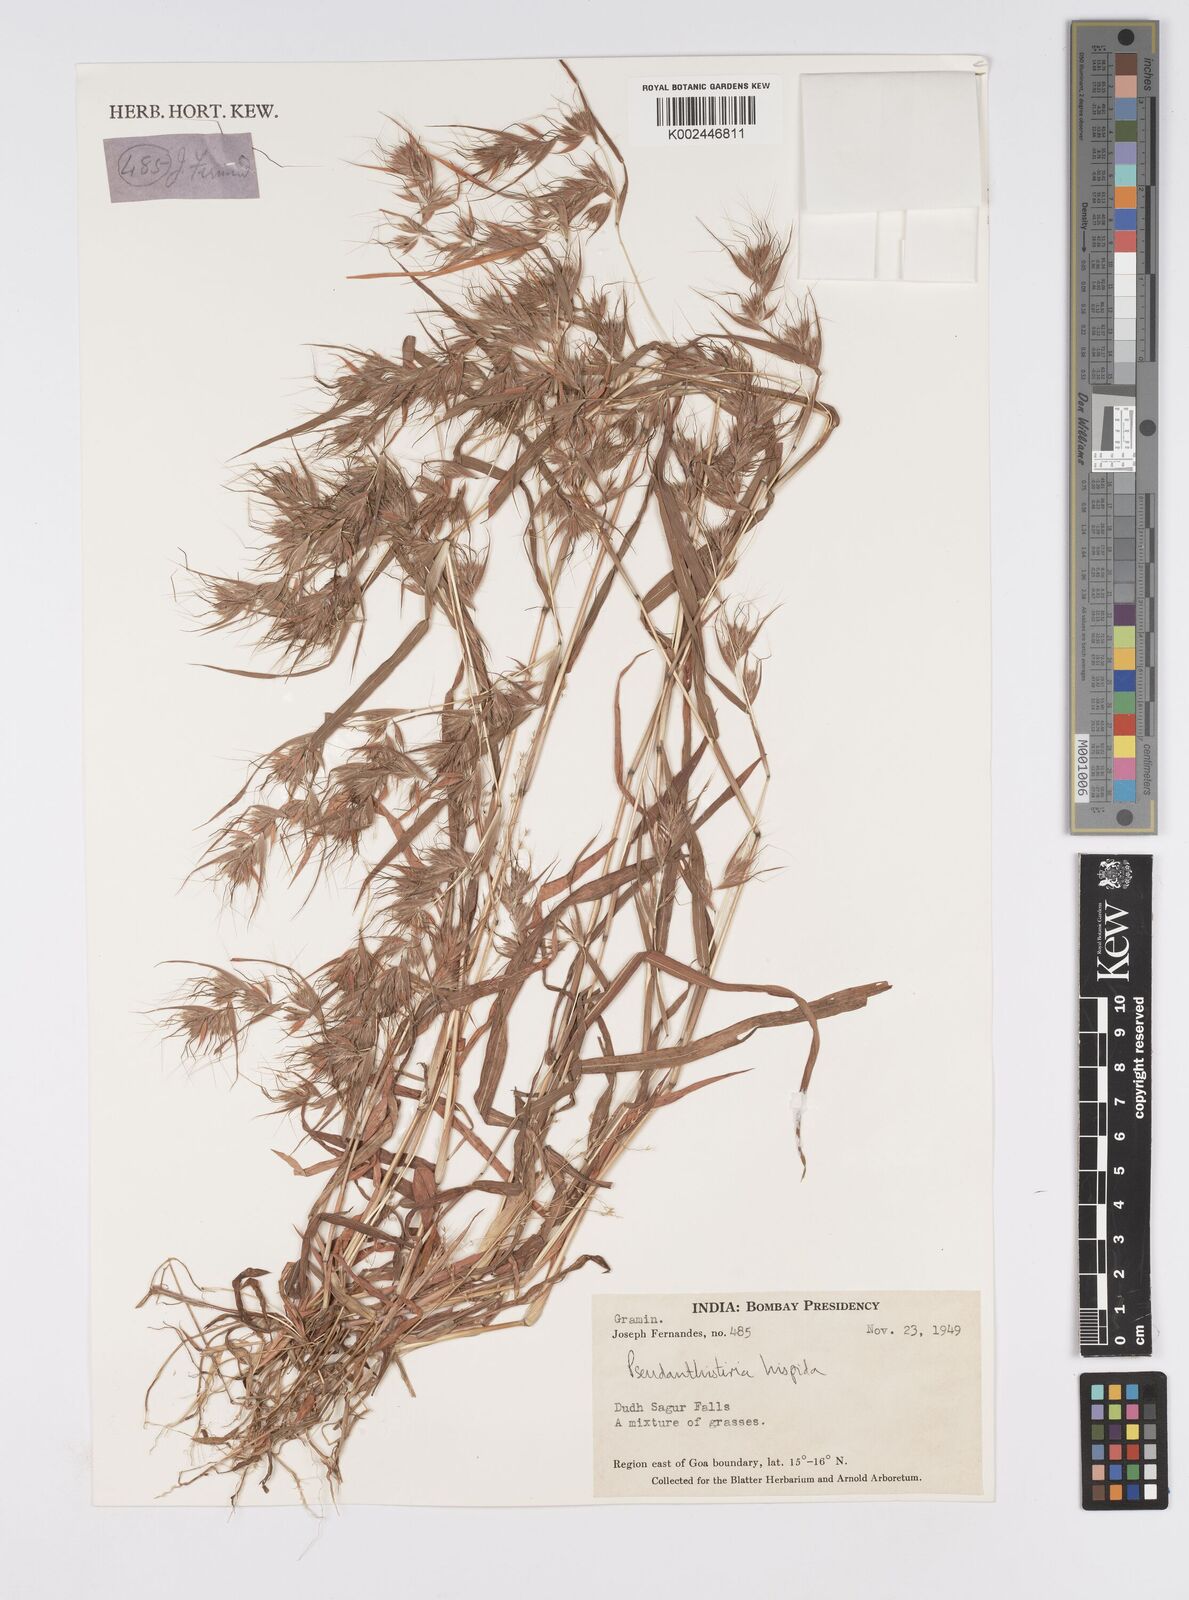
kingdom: Plantae
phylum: Tracheophyta
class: Liliopsida
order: Poales
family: Poaceae
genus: Pseudanthistiria
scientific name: Pseudanthistiria heteroclita
